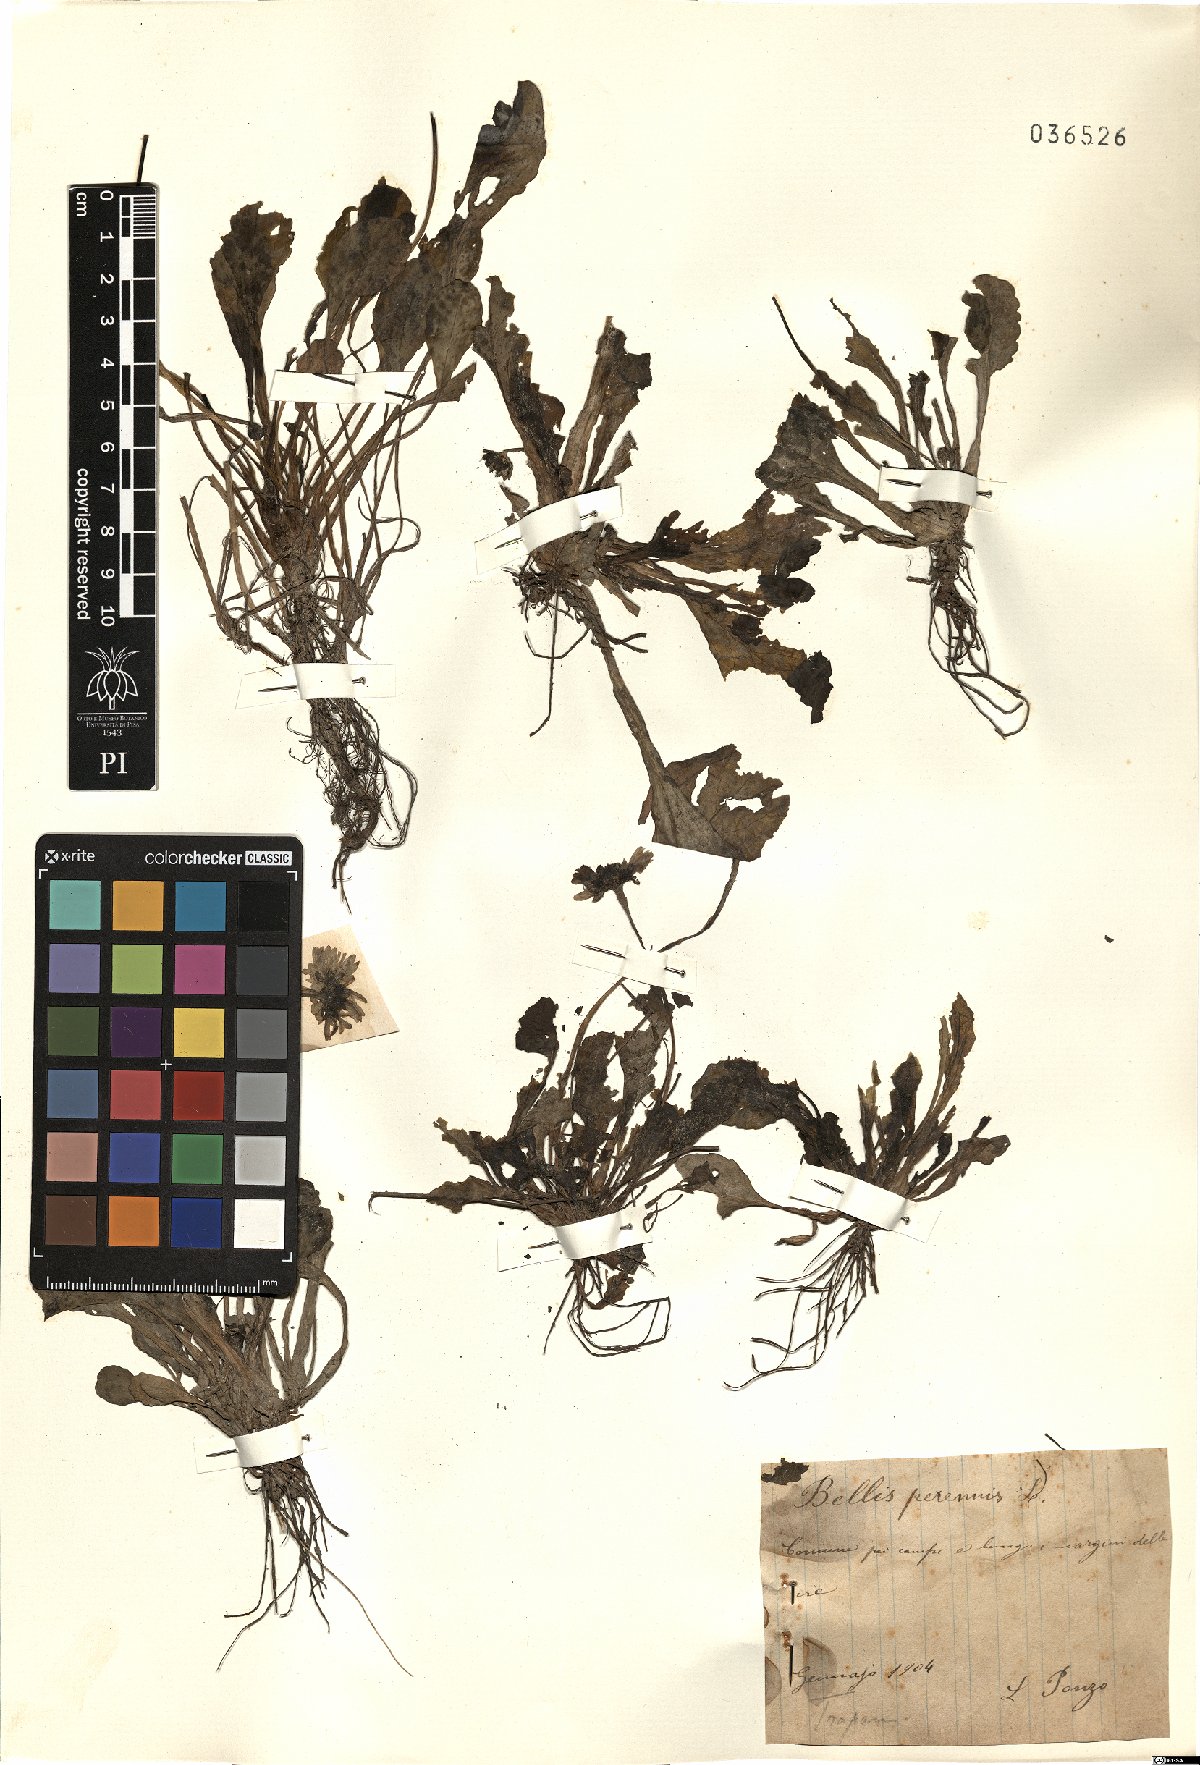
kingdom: Plantae
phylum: Tracheophyta
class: Magnoliopsida
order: Asterales
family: Asteraceae
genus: Bellis
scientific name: Bellis perennis
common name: Lawndaisy
